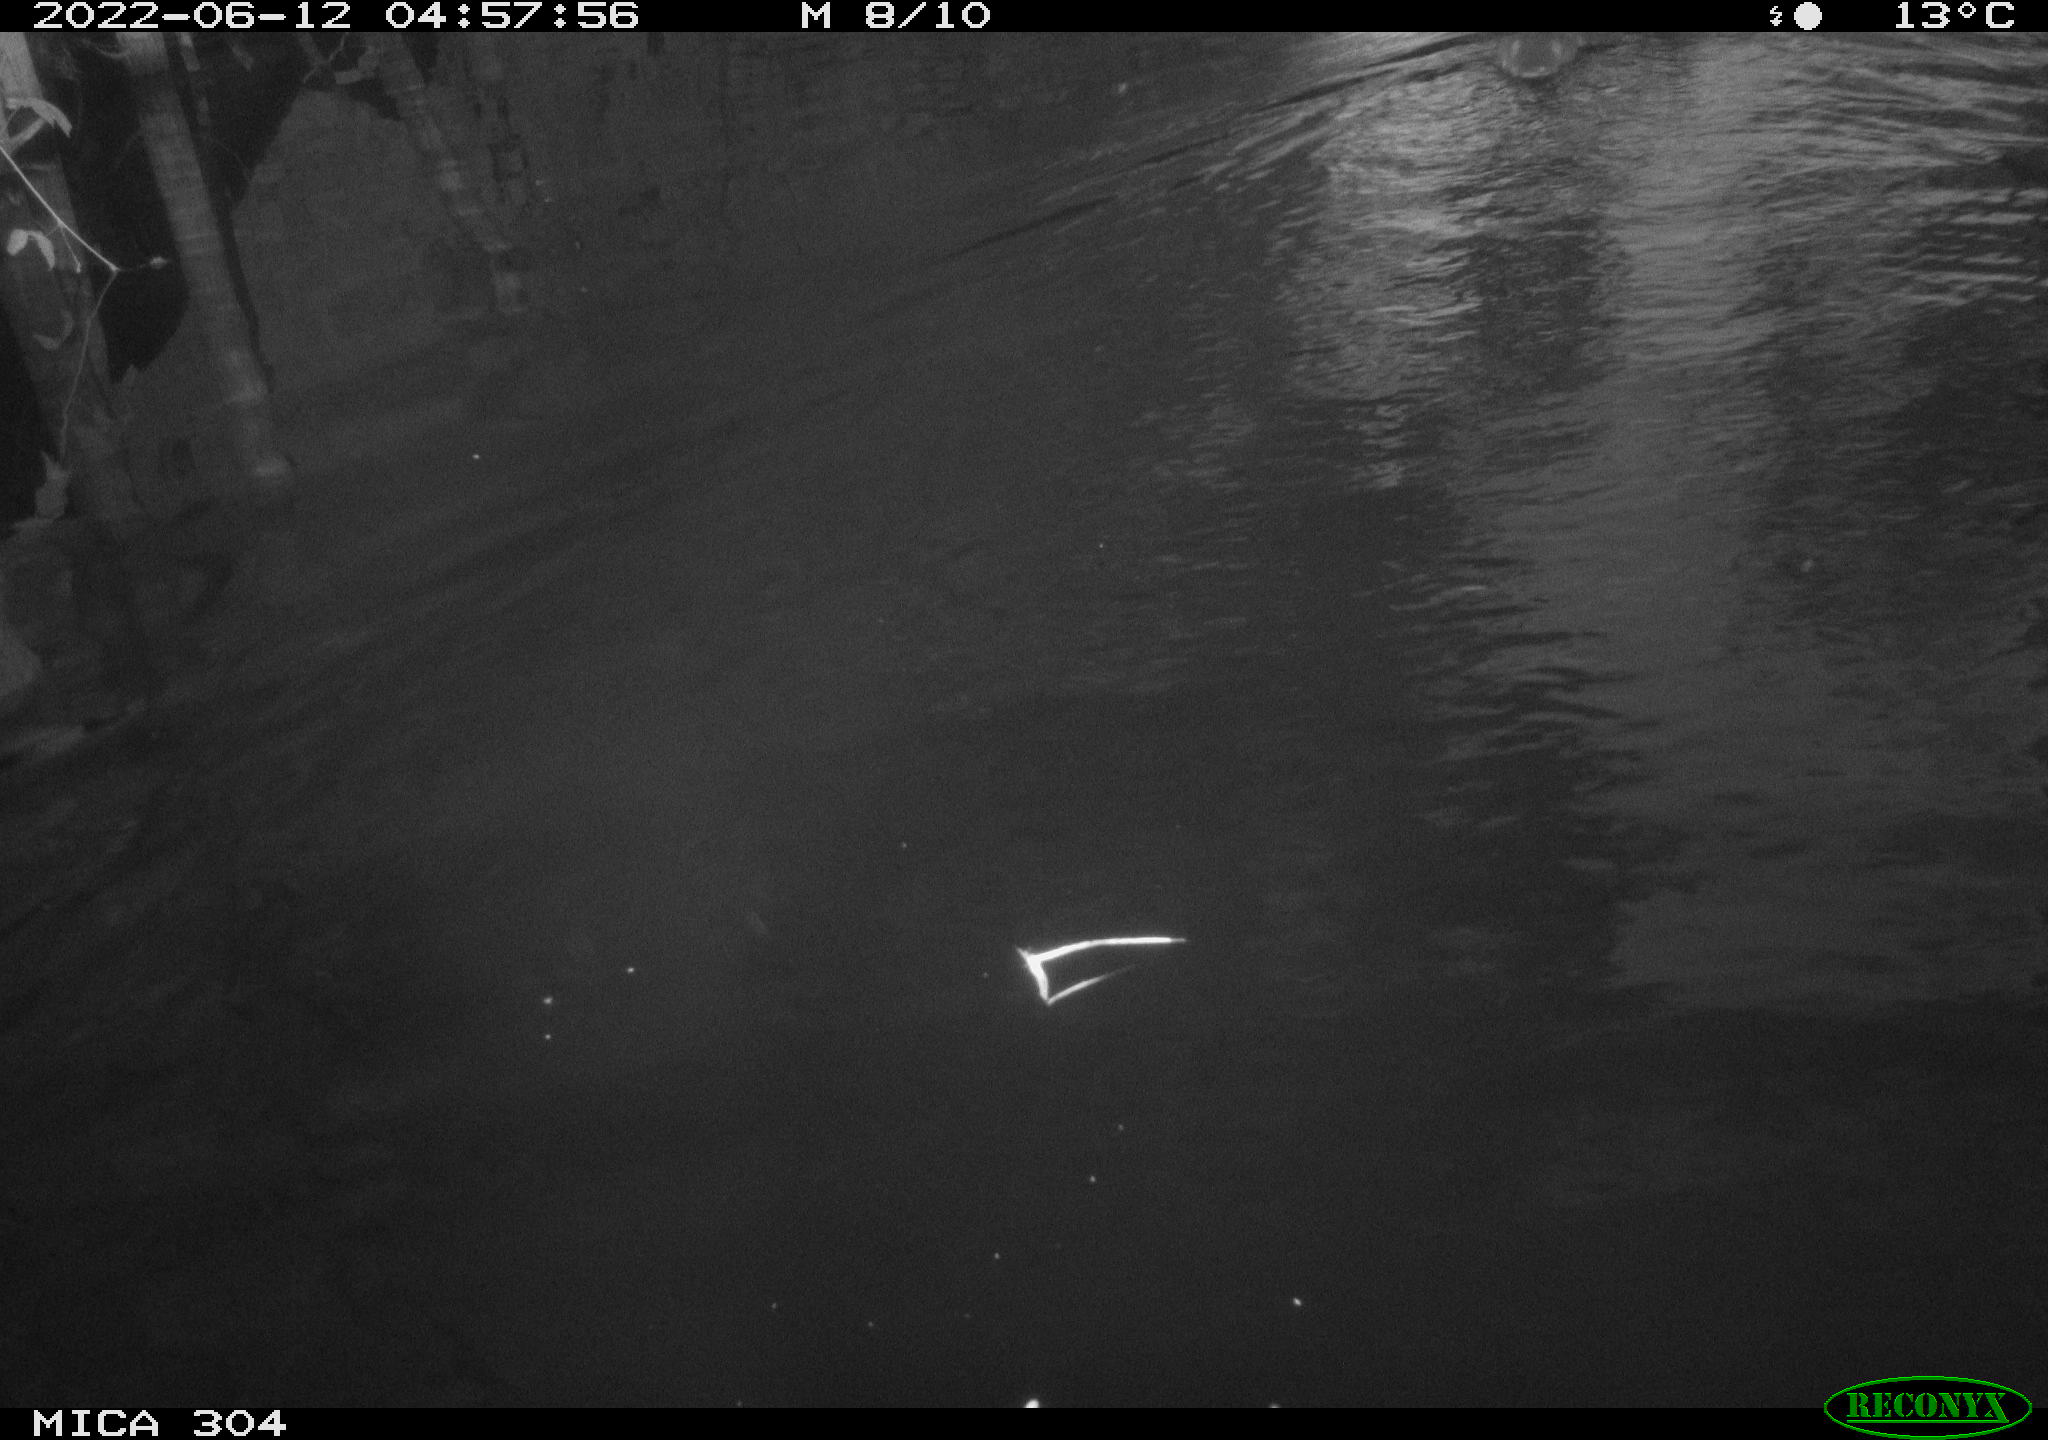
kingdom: Animalia
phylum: Chordata
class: Aves
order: Anseriformes
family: Anatidae
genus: Anas
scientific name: Anas platyrhynchos
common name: Mallard
